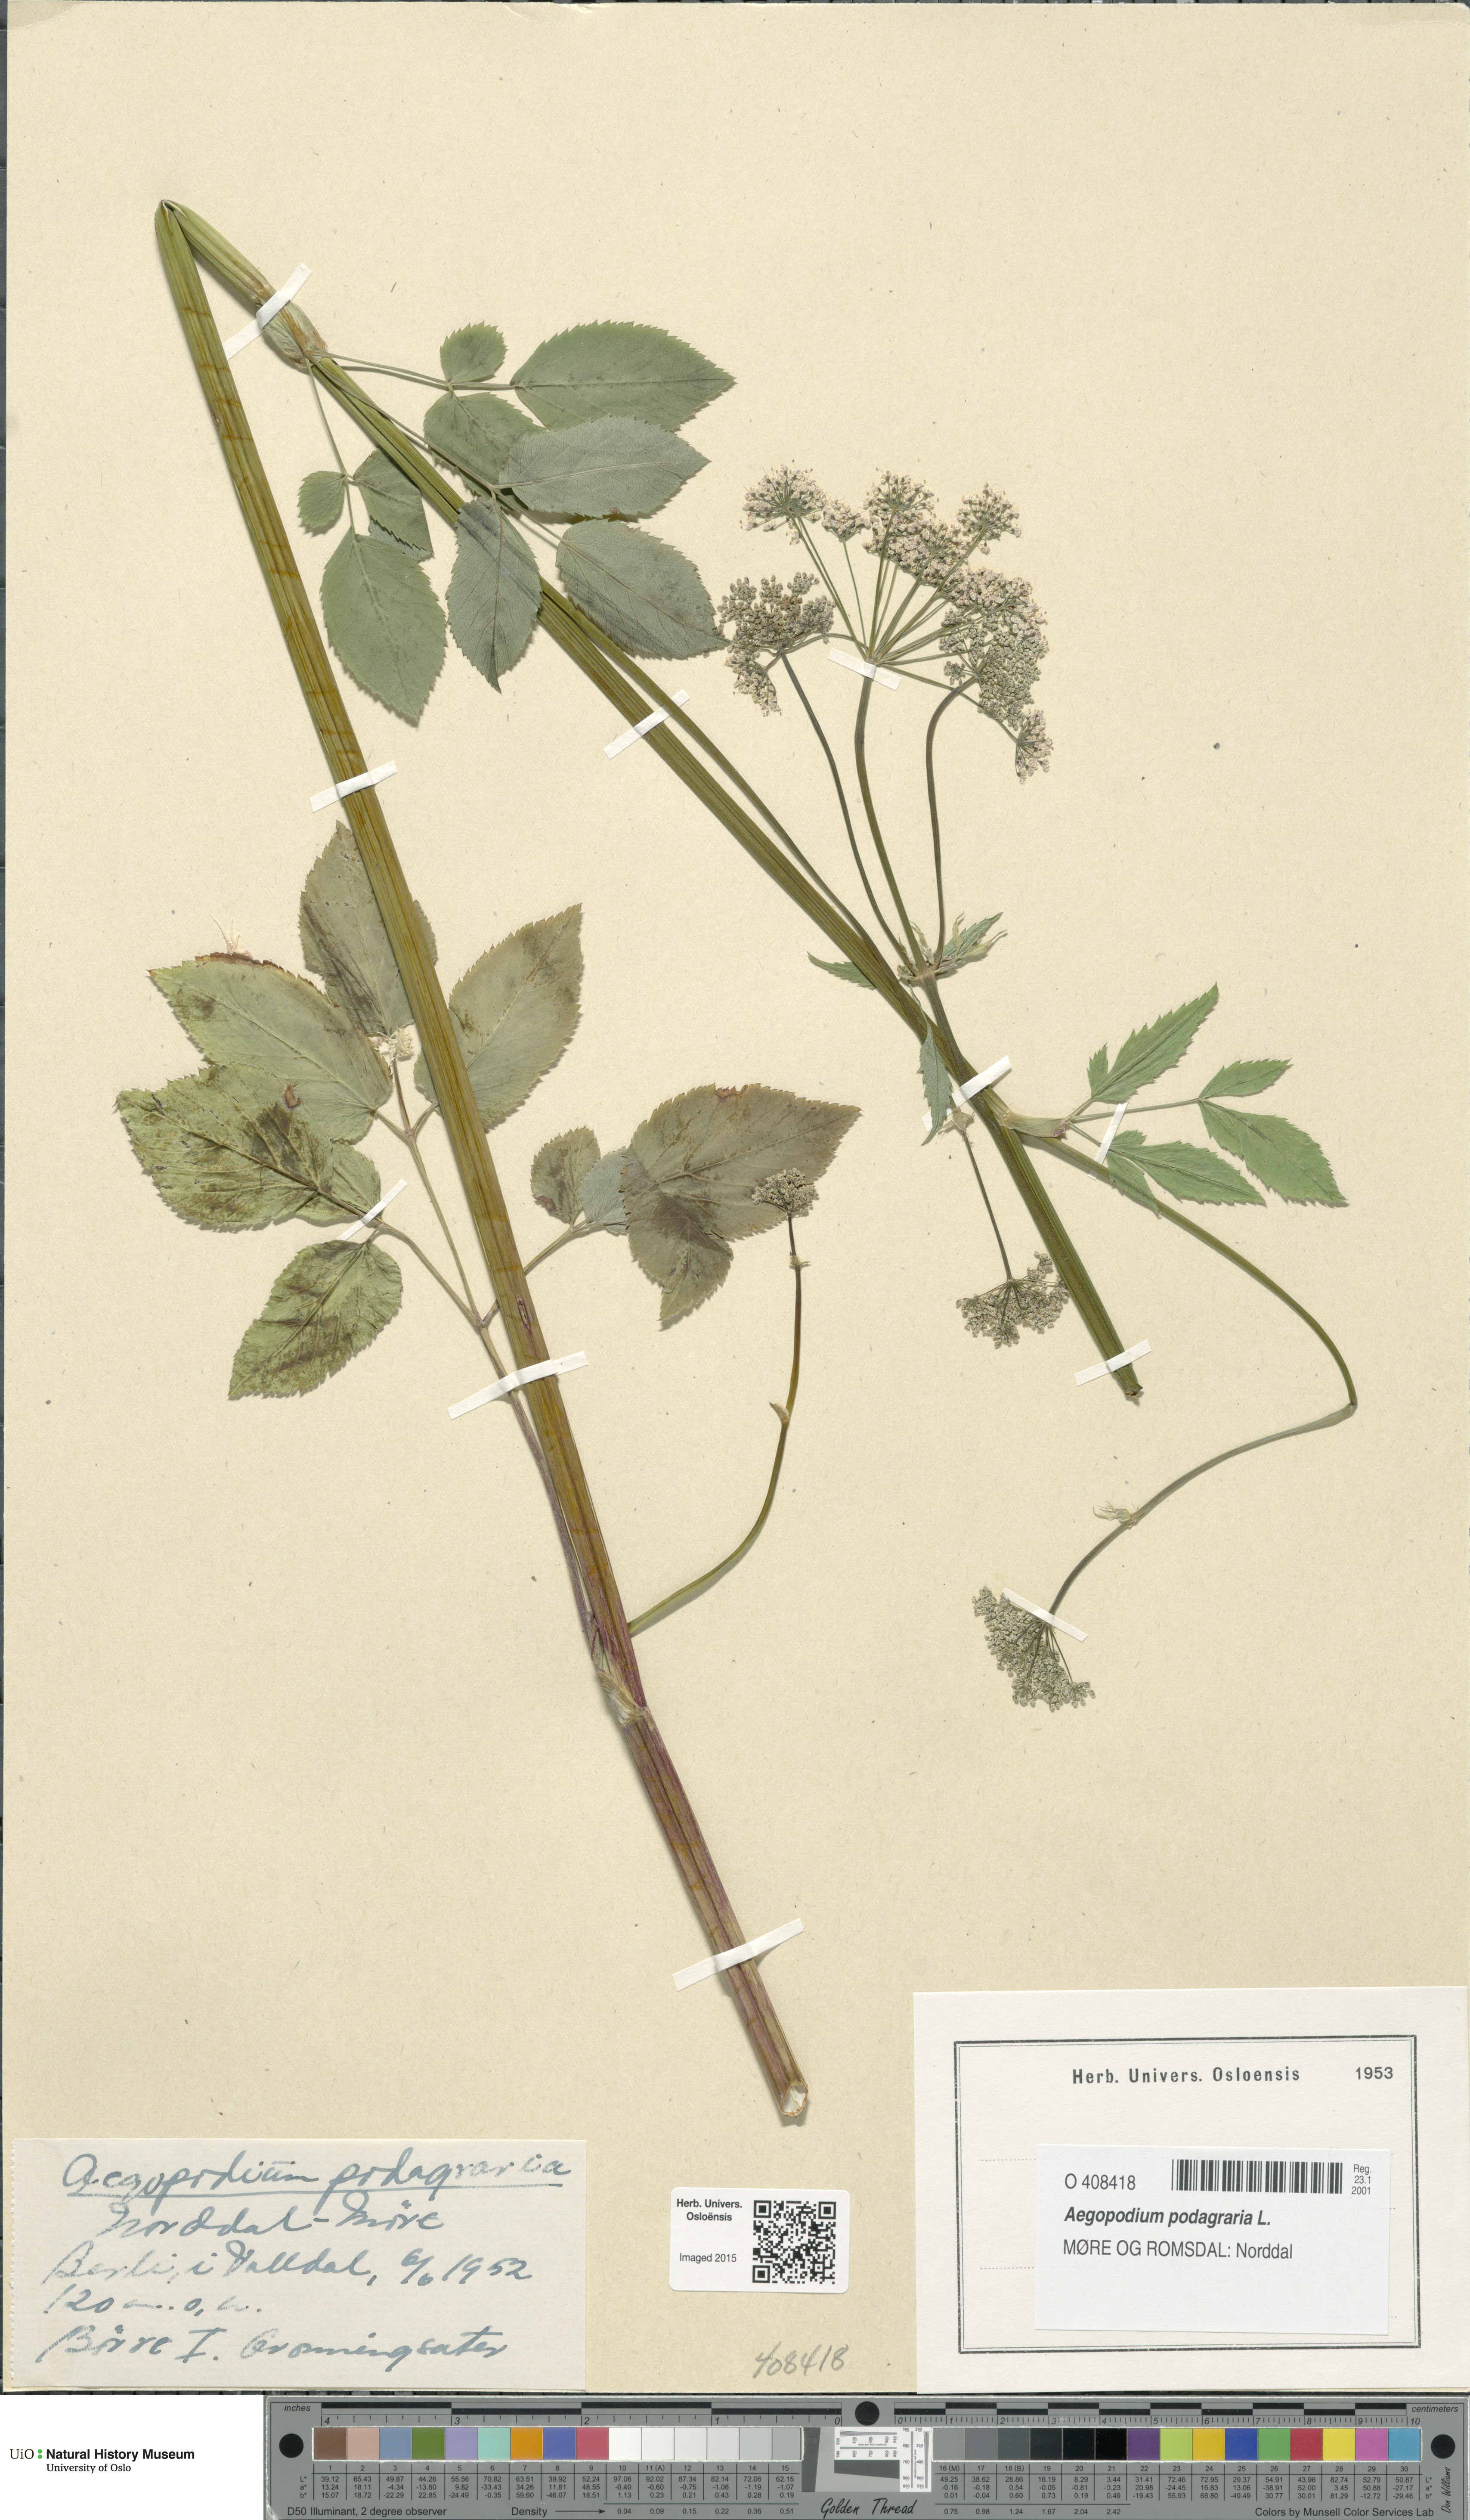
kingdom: Plantae
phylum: Tracheophyta
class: Magnoliopsida
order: Apiales
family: Apiaceae
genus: Aegopodium
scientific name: Aegopodium podagraria
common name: Ground-elder
